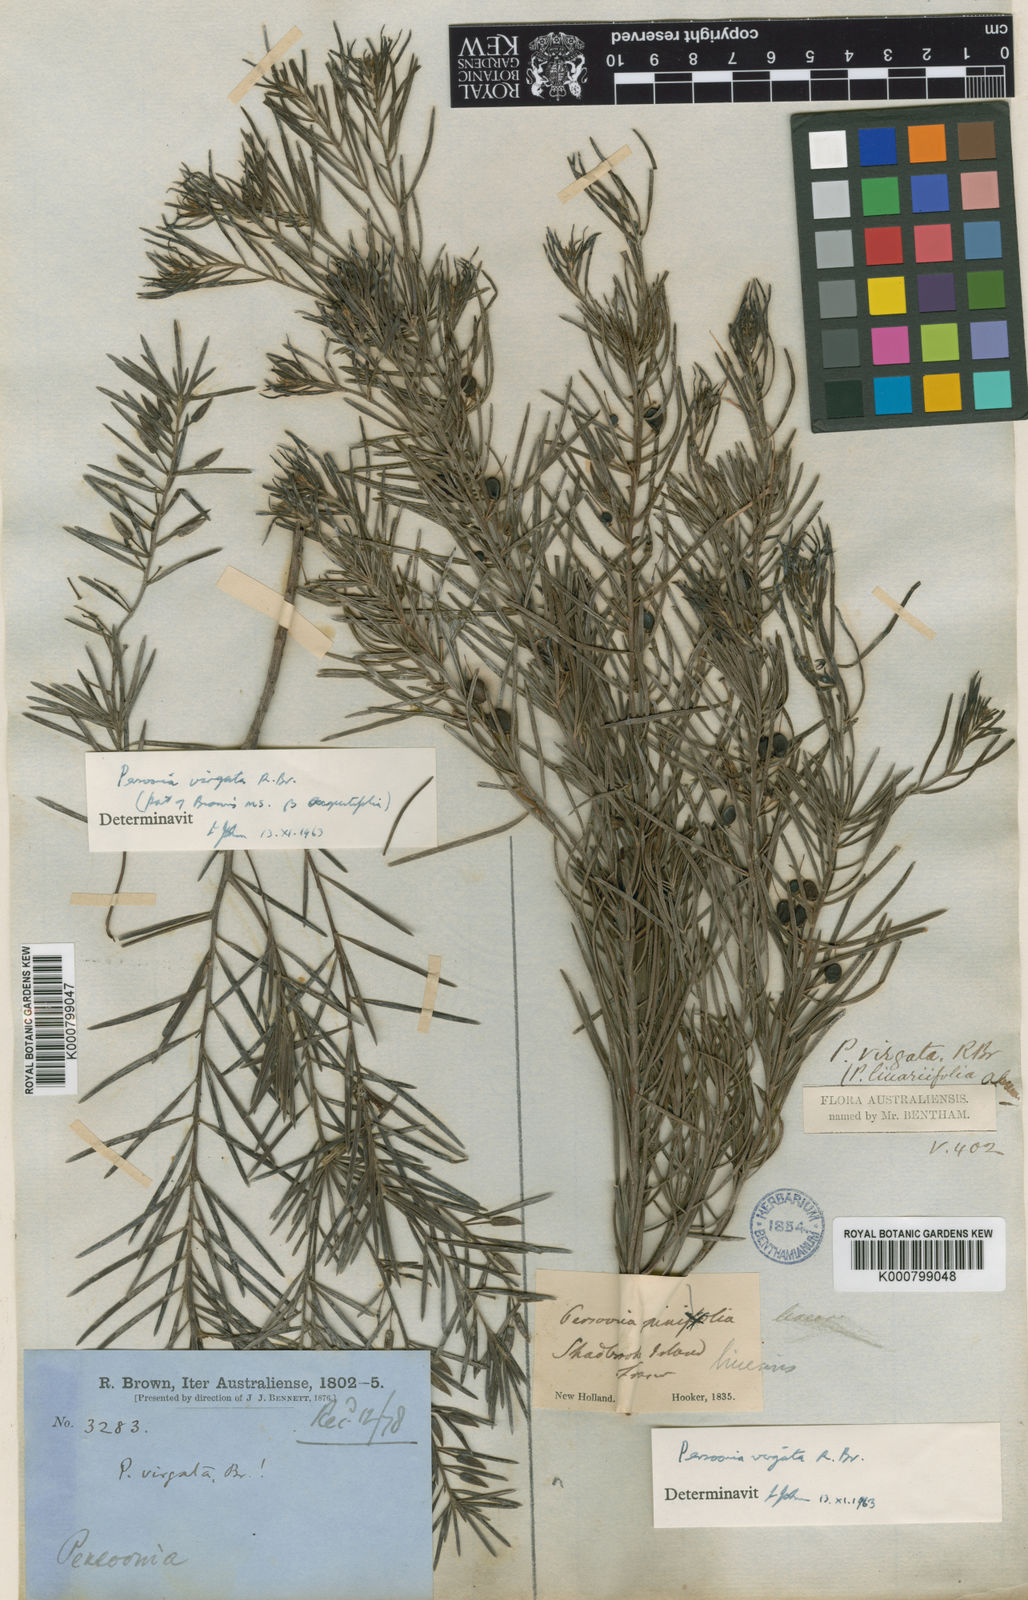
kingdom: Plantae
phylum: Tracheophyta
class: Magnoliopsida
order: Proteales
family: Proteaceae
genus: Persoonia
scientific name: Persoonia virgata
